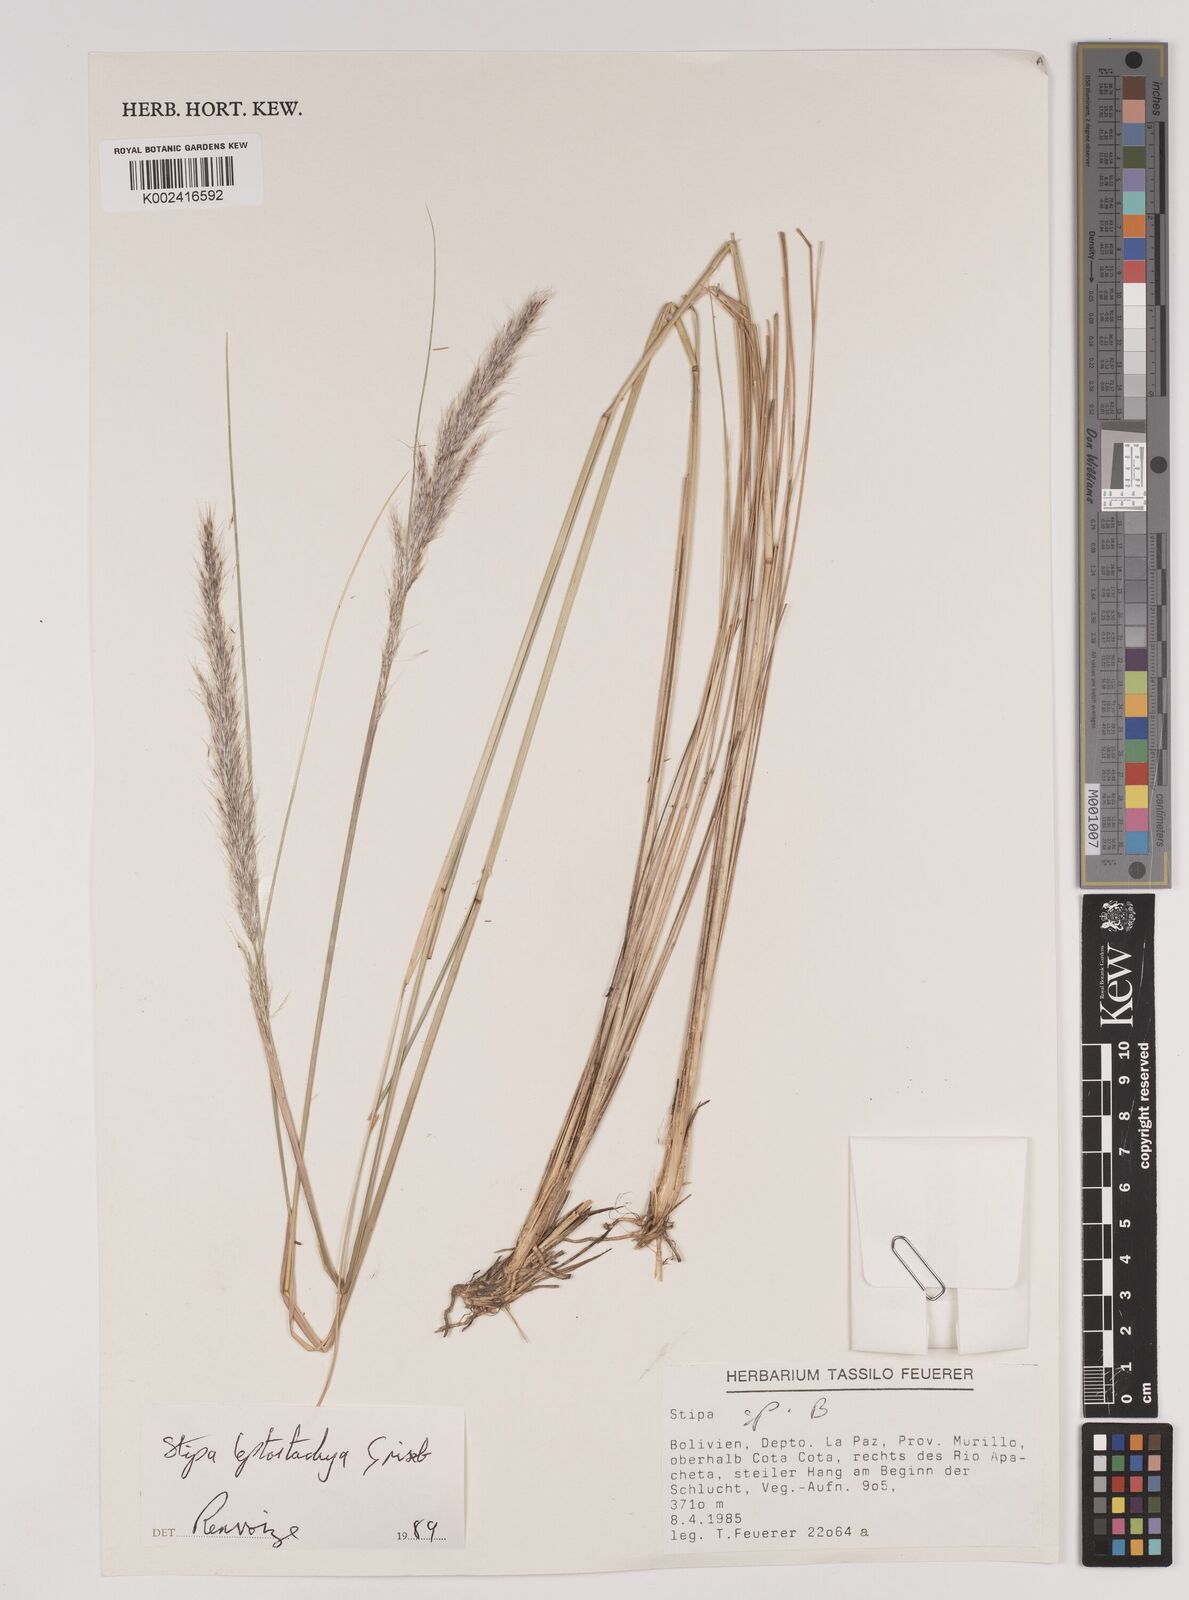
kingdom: Plantae
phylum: Tracheophyta
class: Liliopsida
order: Poales
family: Poaceae
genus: Jarava
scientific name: Jarava leptostachya
